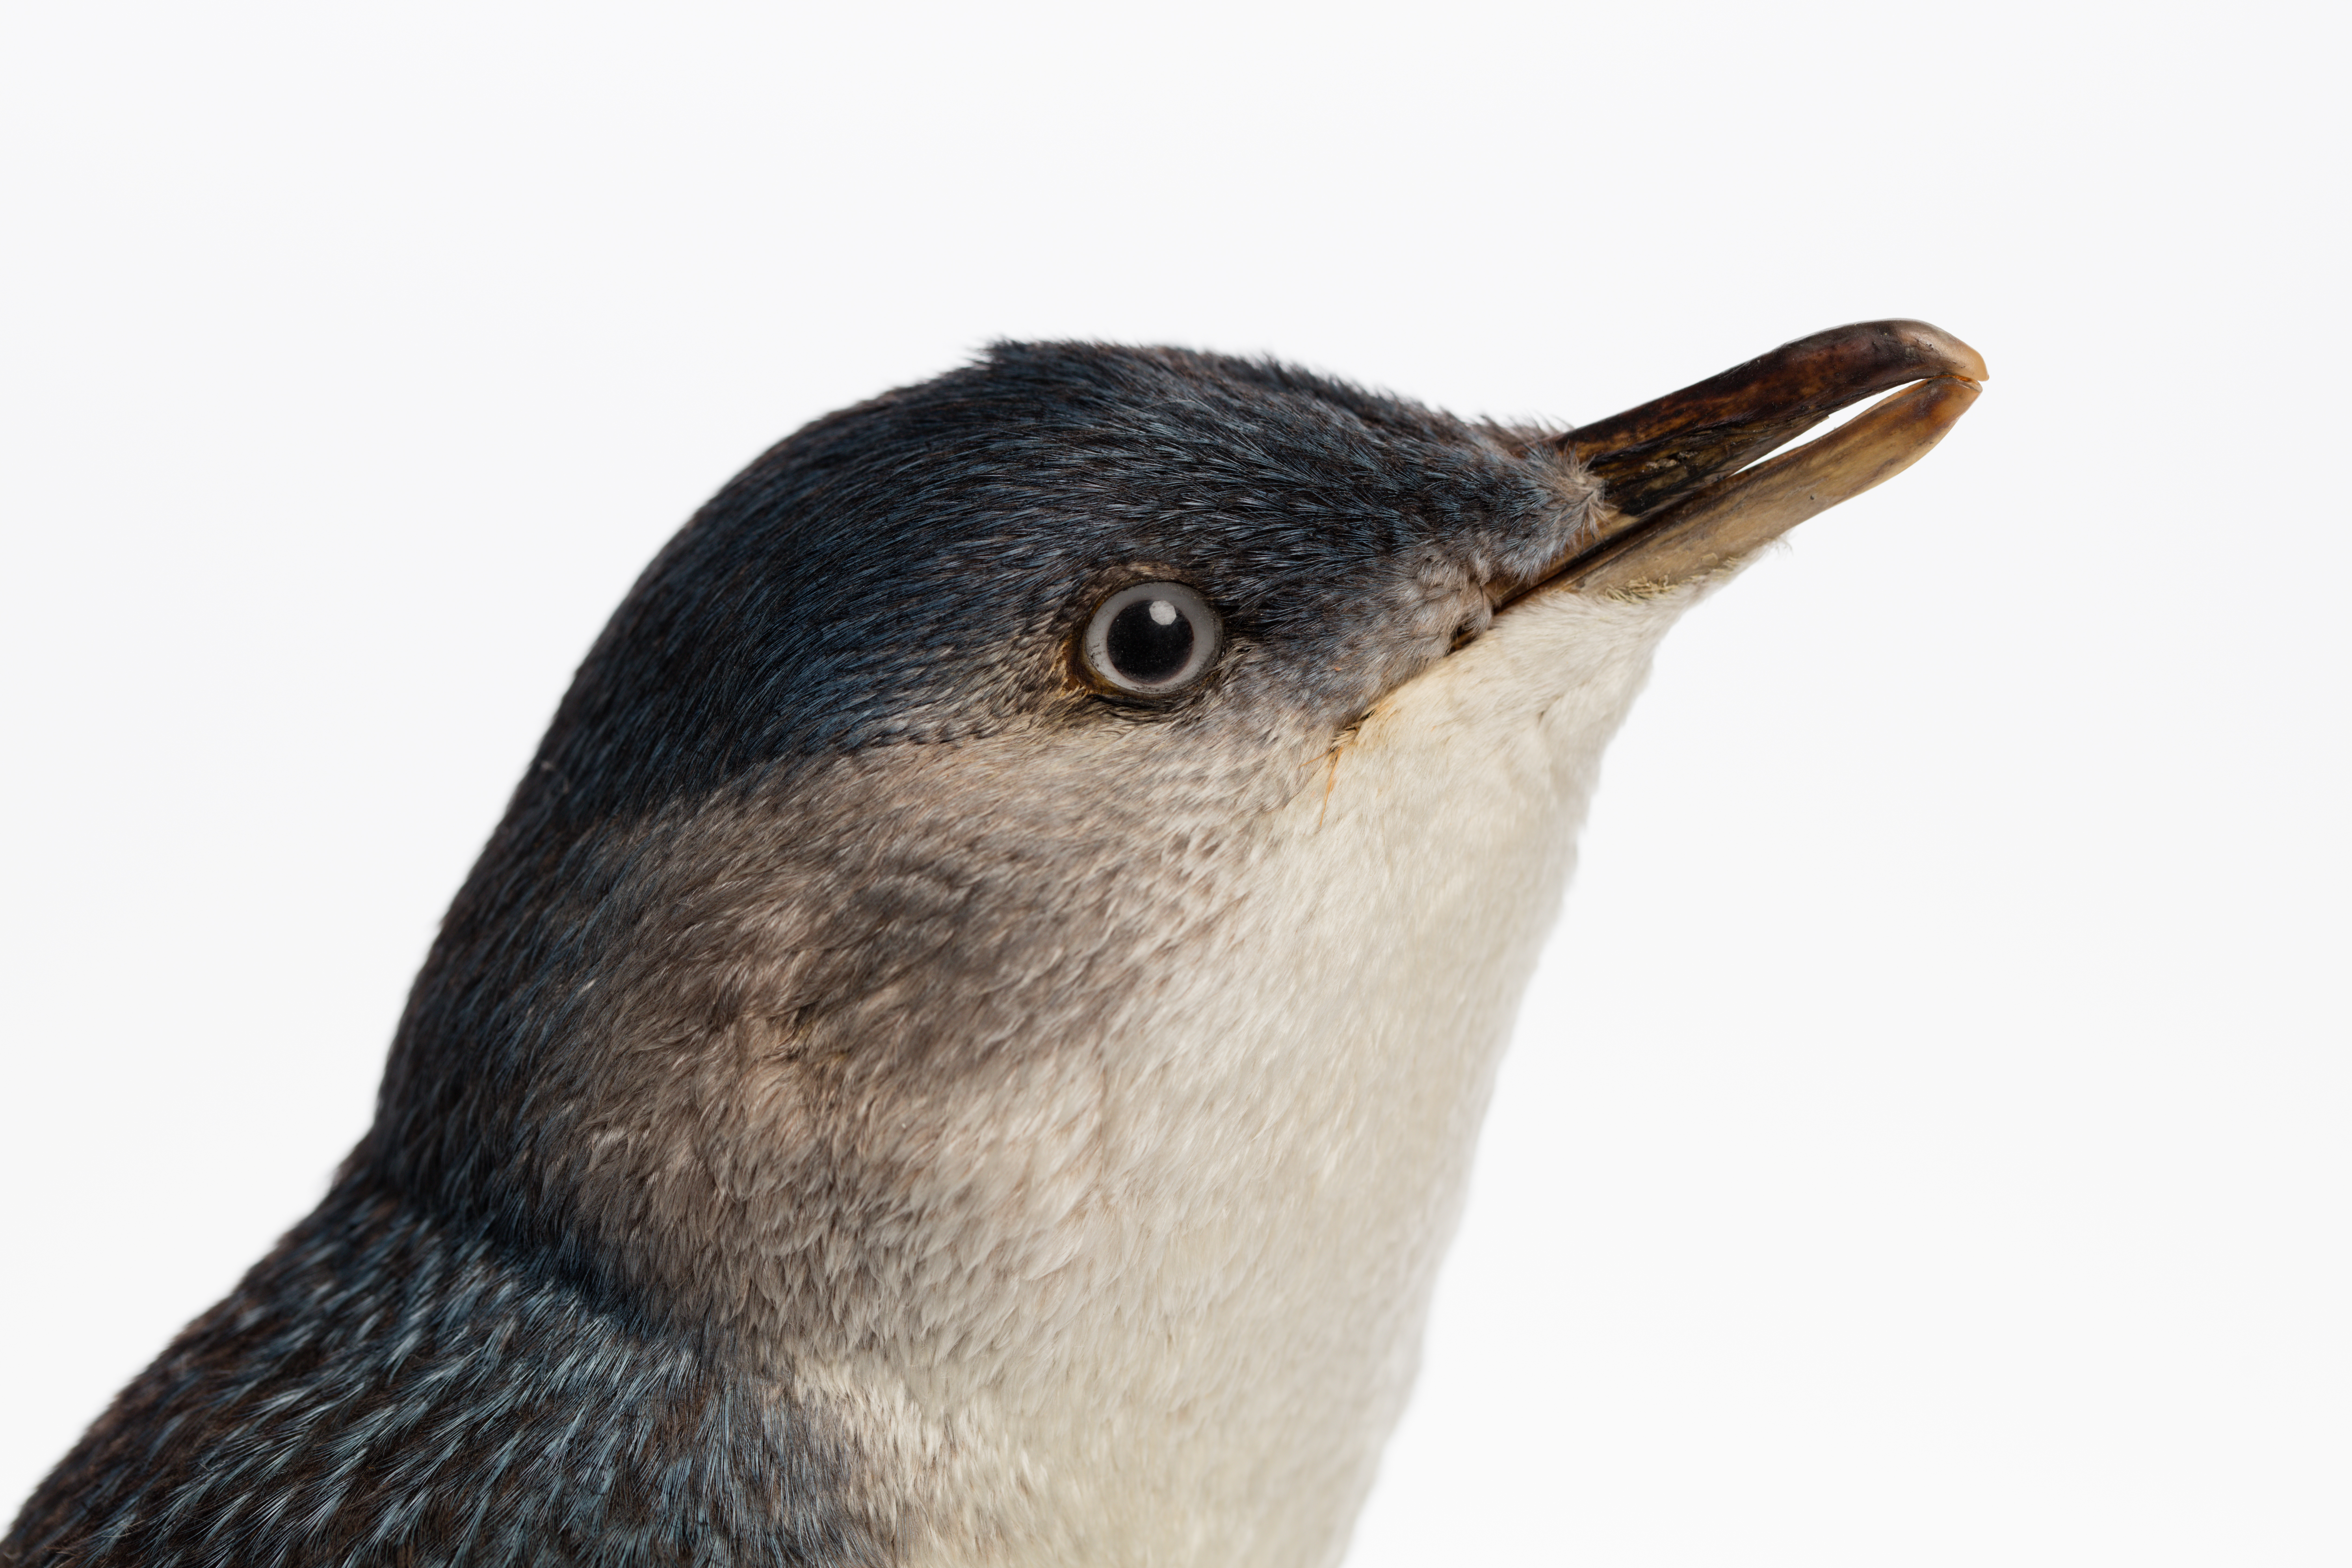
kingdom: Animalia
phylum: Chordata
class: Aves
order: Sphenisciformes
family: Spheniscidae
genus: Eudyptula
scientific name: Eudyptula minor
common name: Little penguin
